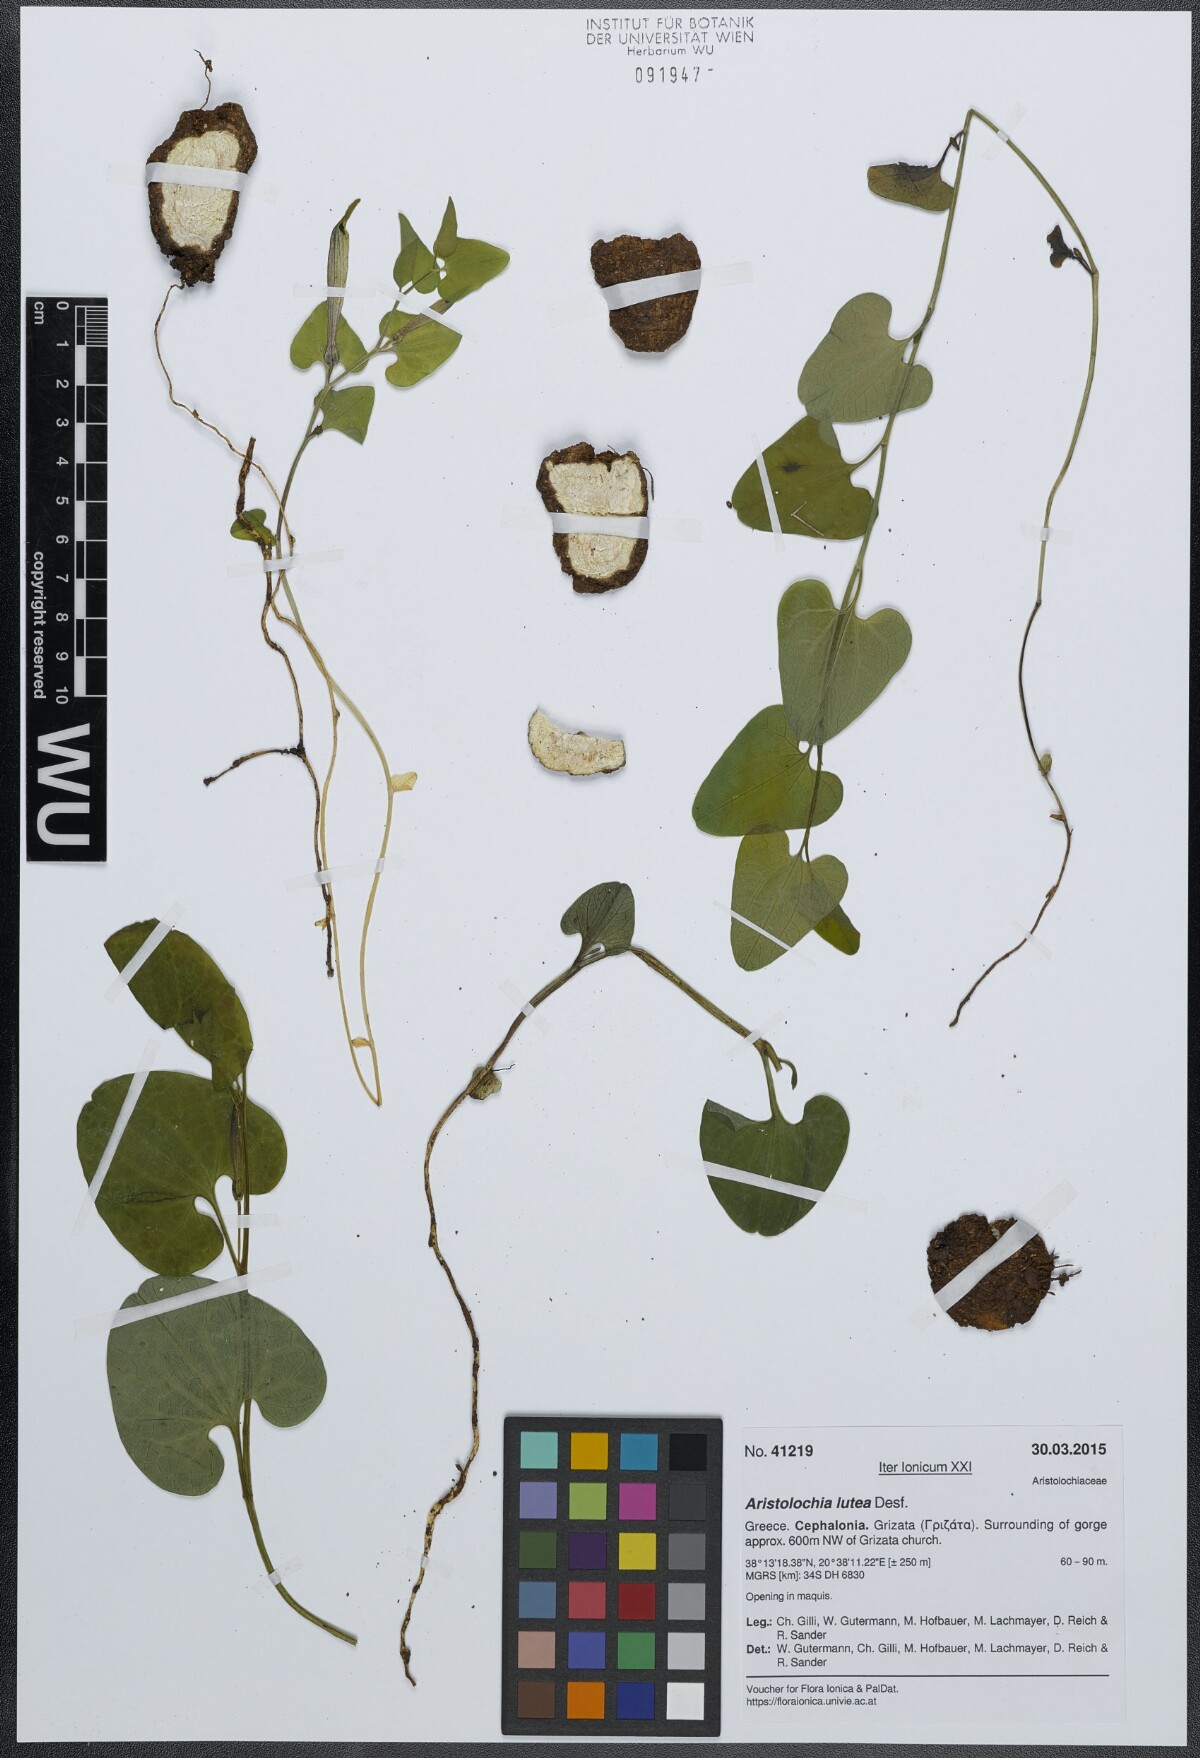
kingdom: Plantae
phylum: Tracheophyta
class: Magnoliopsida
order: Piperales
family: Aristolochiaceae
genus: Aristolochia
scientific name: Aristolochia lutea
